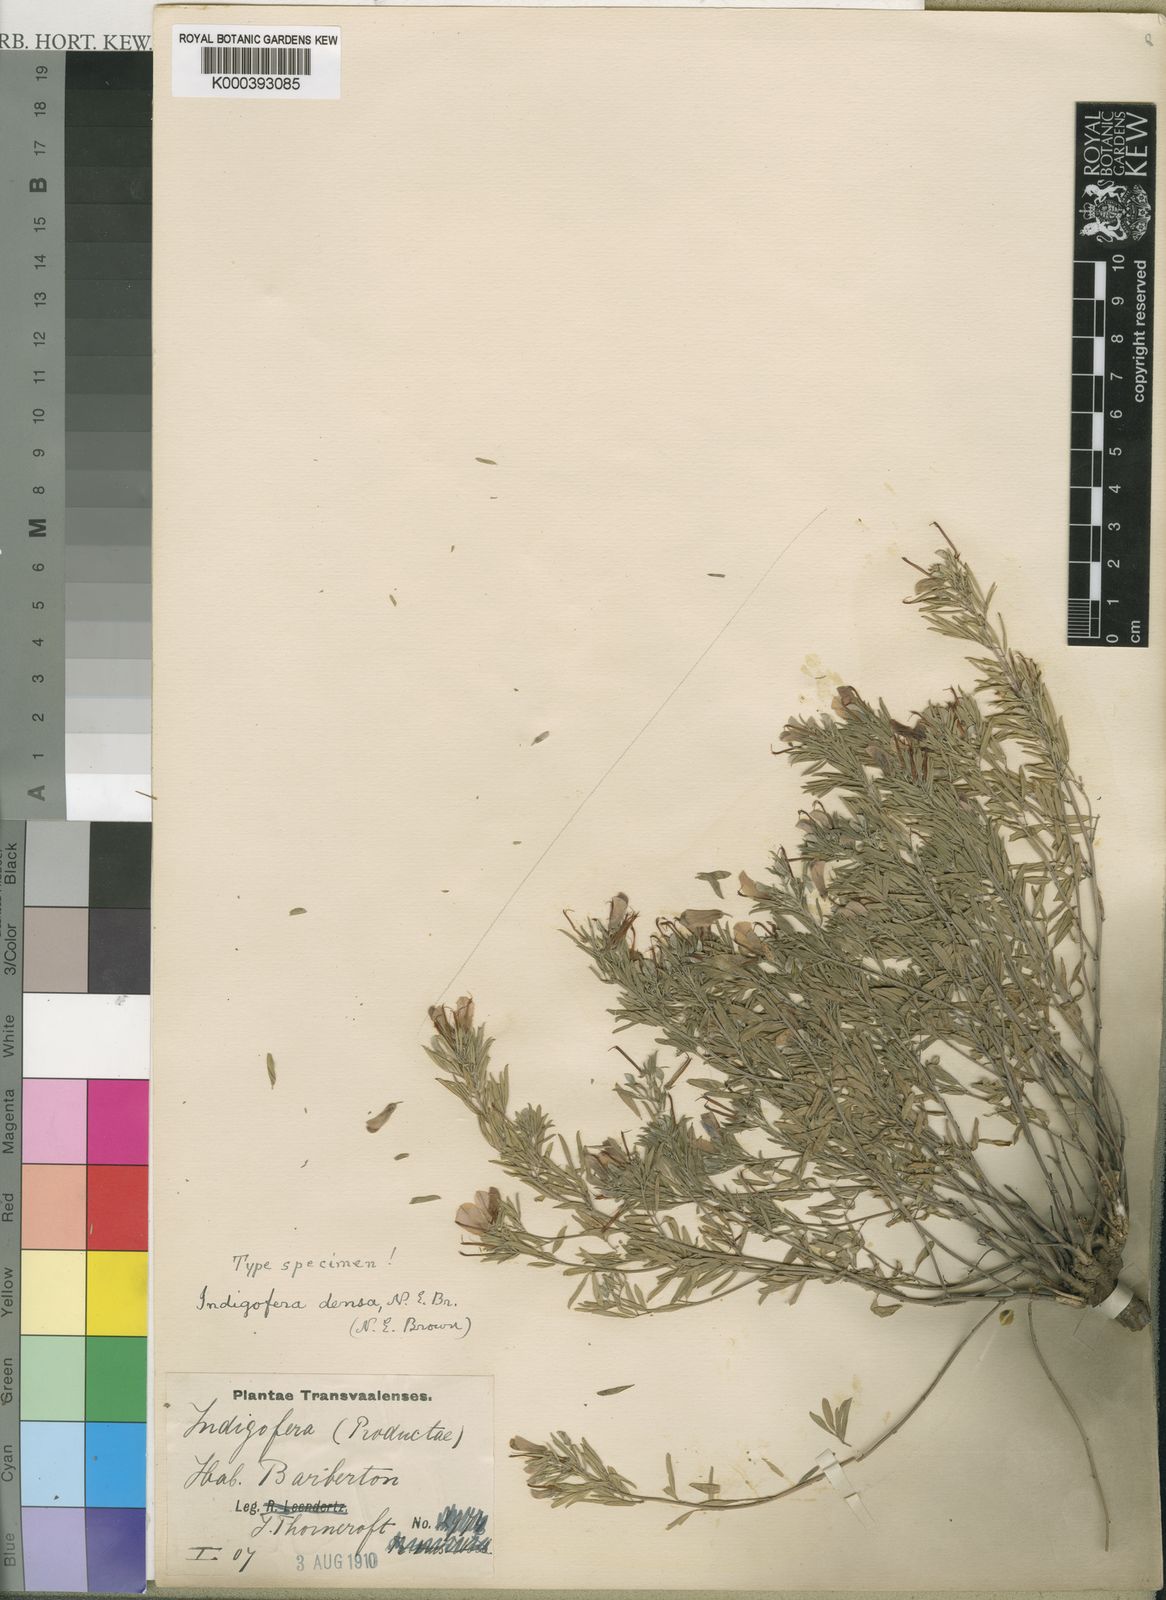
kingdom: Plantae
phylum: Tracheophyta
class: Magnoliopsida
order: Fabales
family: Fabaceae
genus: Indigofera
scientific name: Indigofera densa
